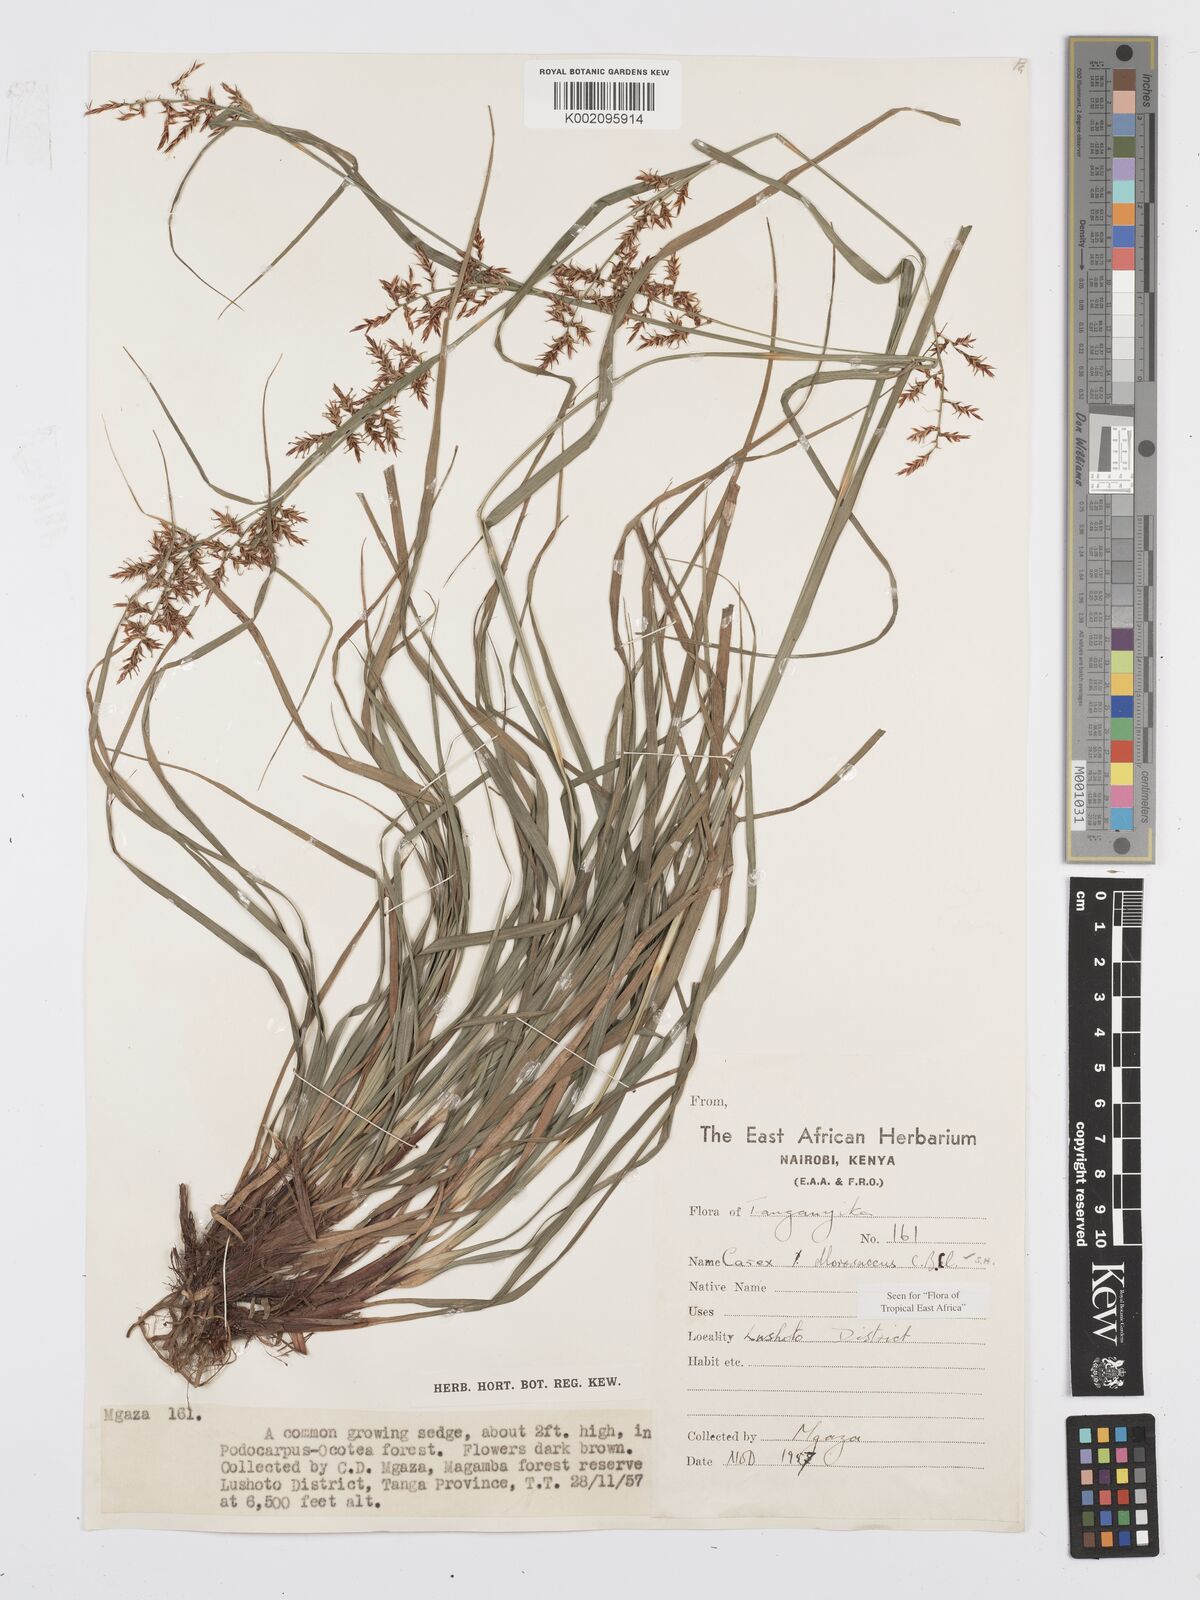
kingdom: Plantae
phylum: Tracheophyta
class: Liliopsida
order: Poales
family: Cyperaceae
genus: Carex
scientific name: Carex chlorosaccus
